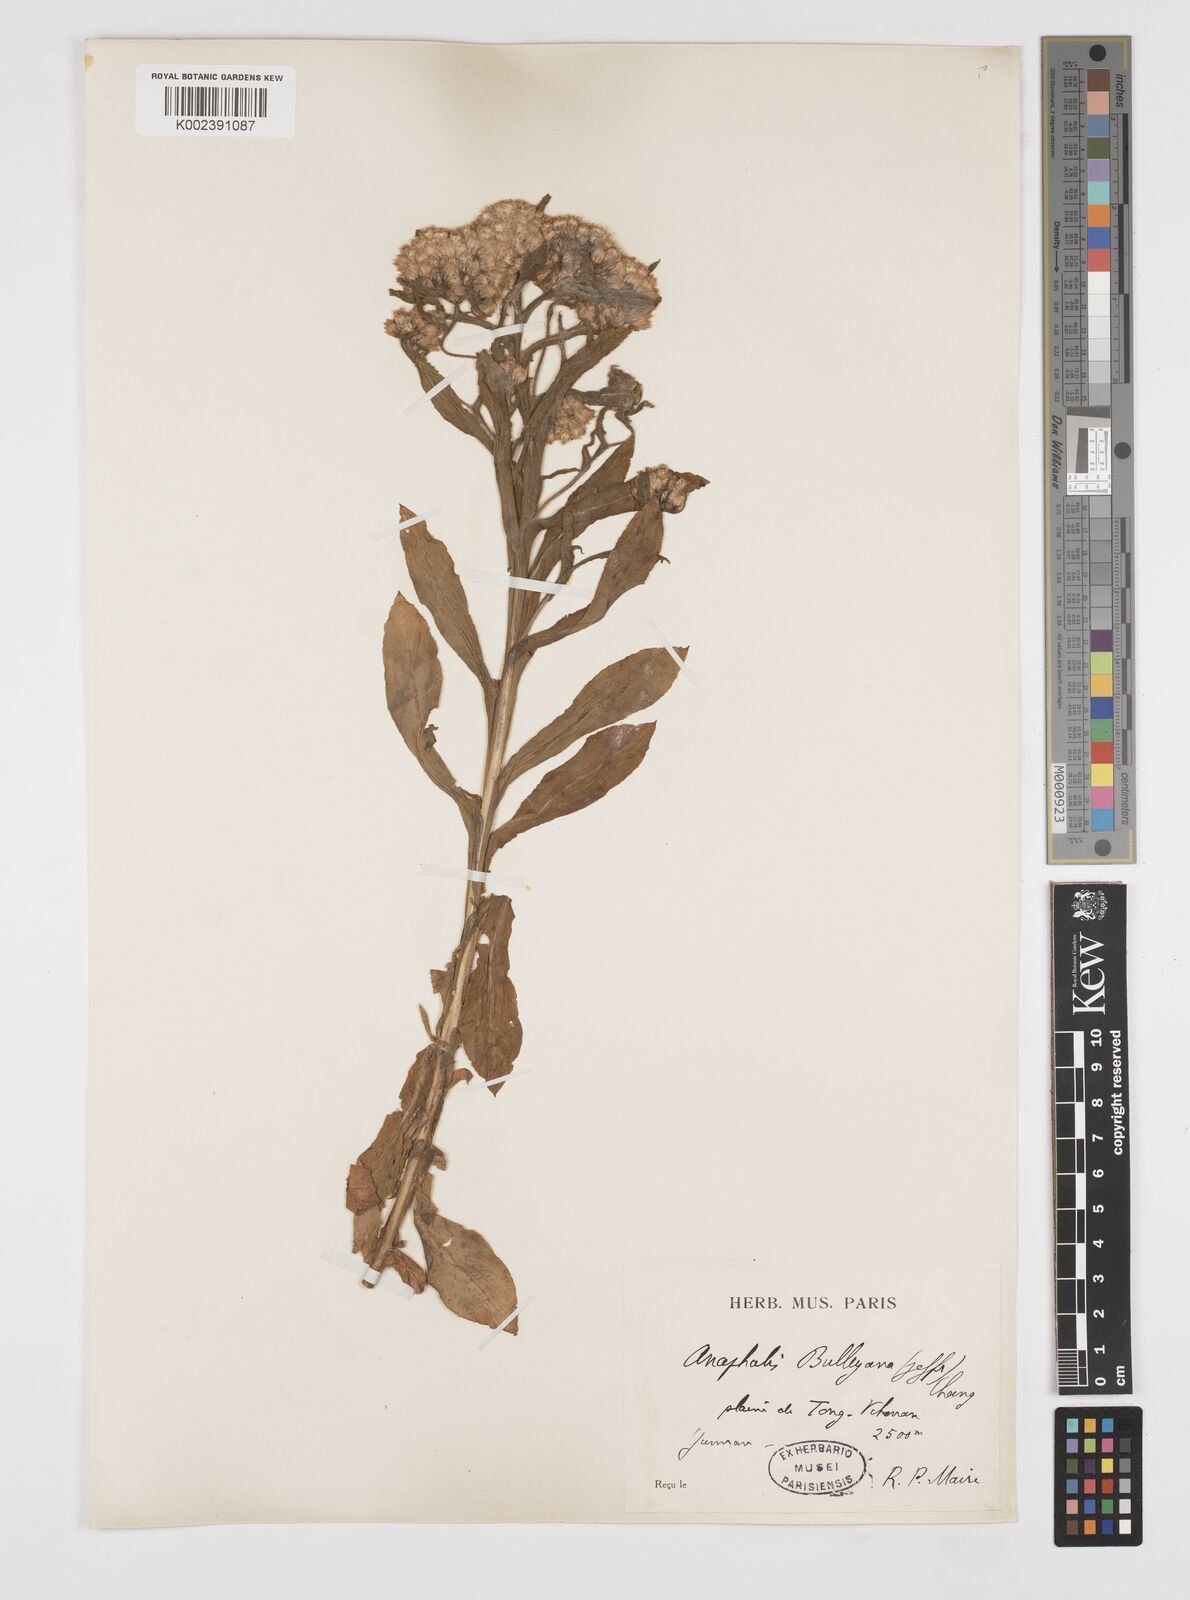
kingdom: Plantae
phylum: Tracheophyta
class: Magnoliopsida
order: Asterales
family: Asteraceae
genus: Anaphalis
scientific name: Anaphalis bulleyana
